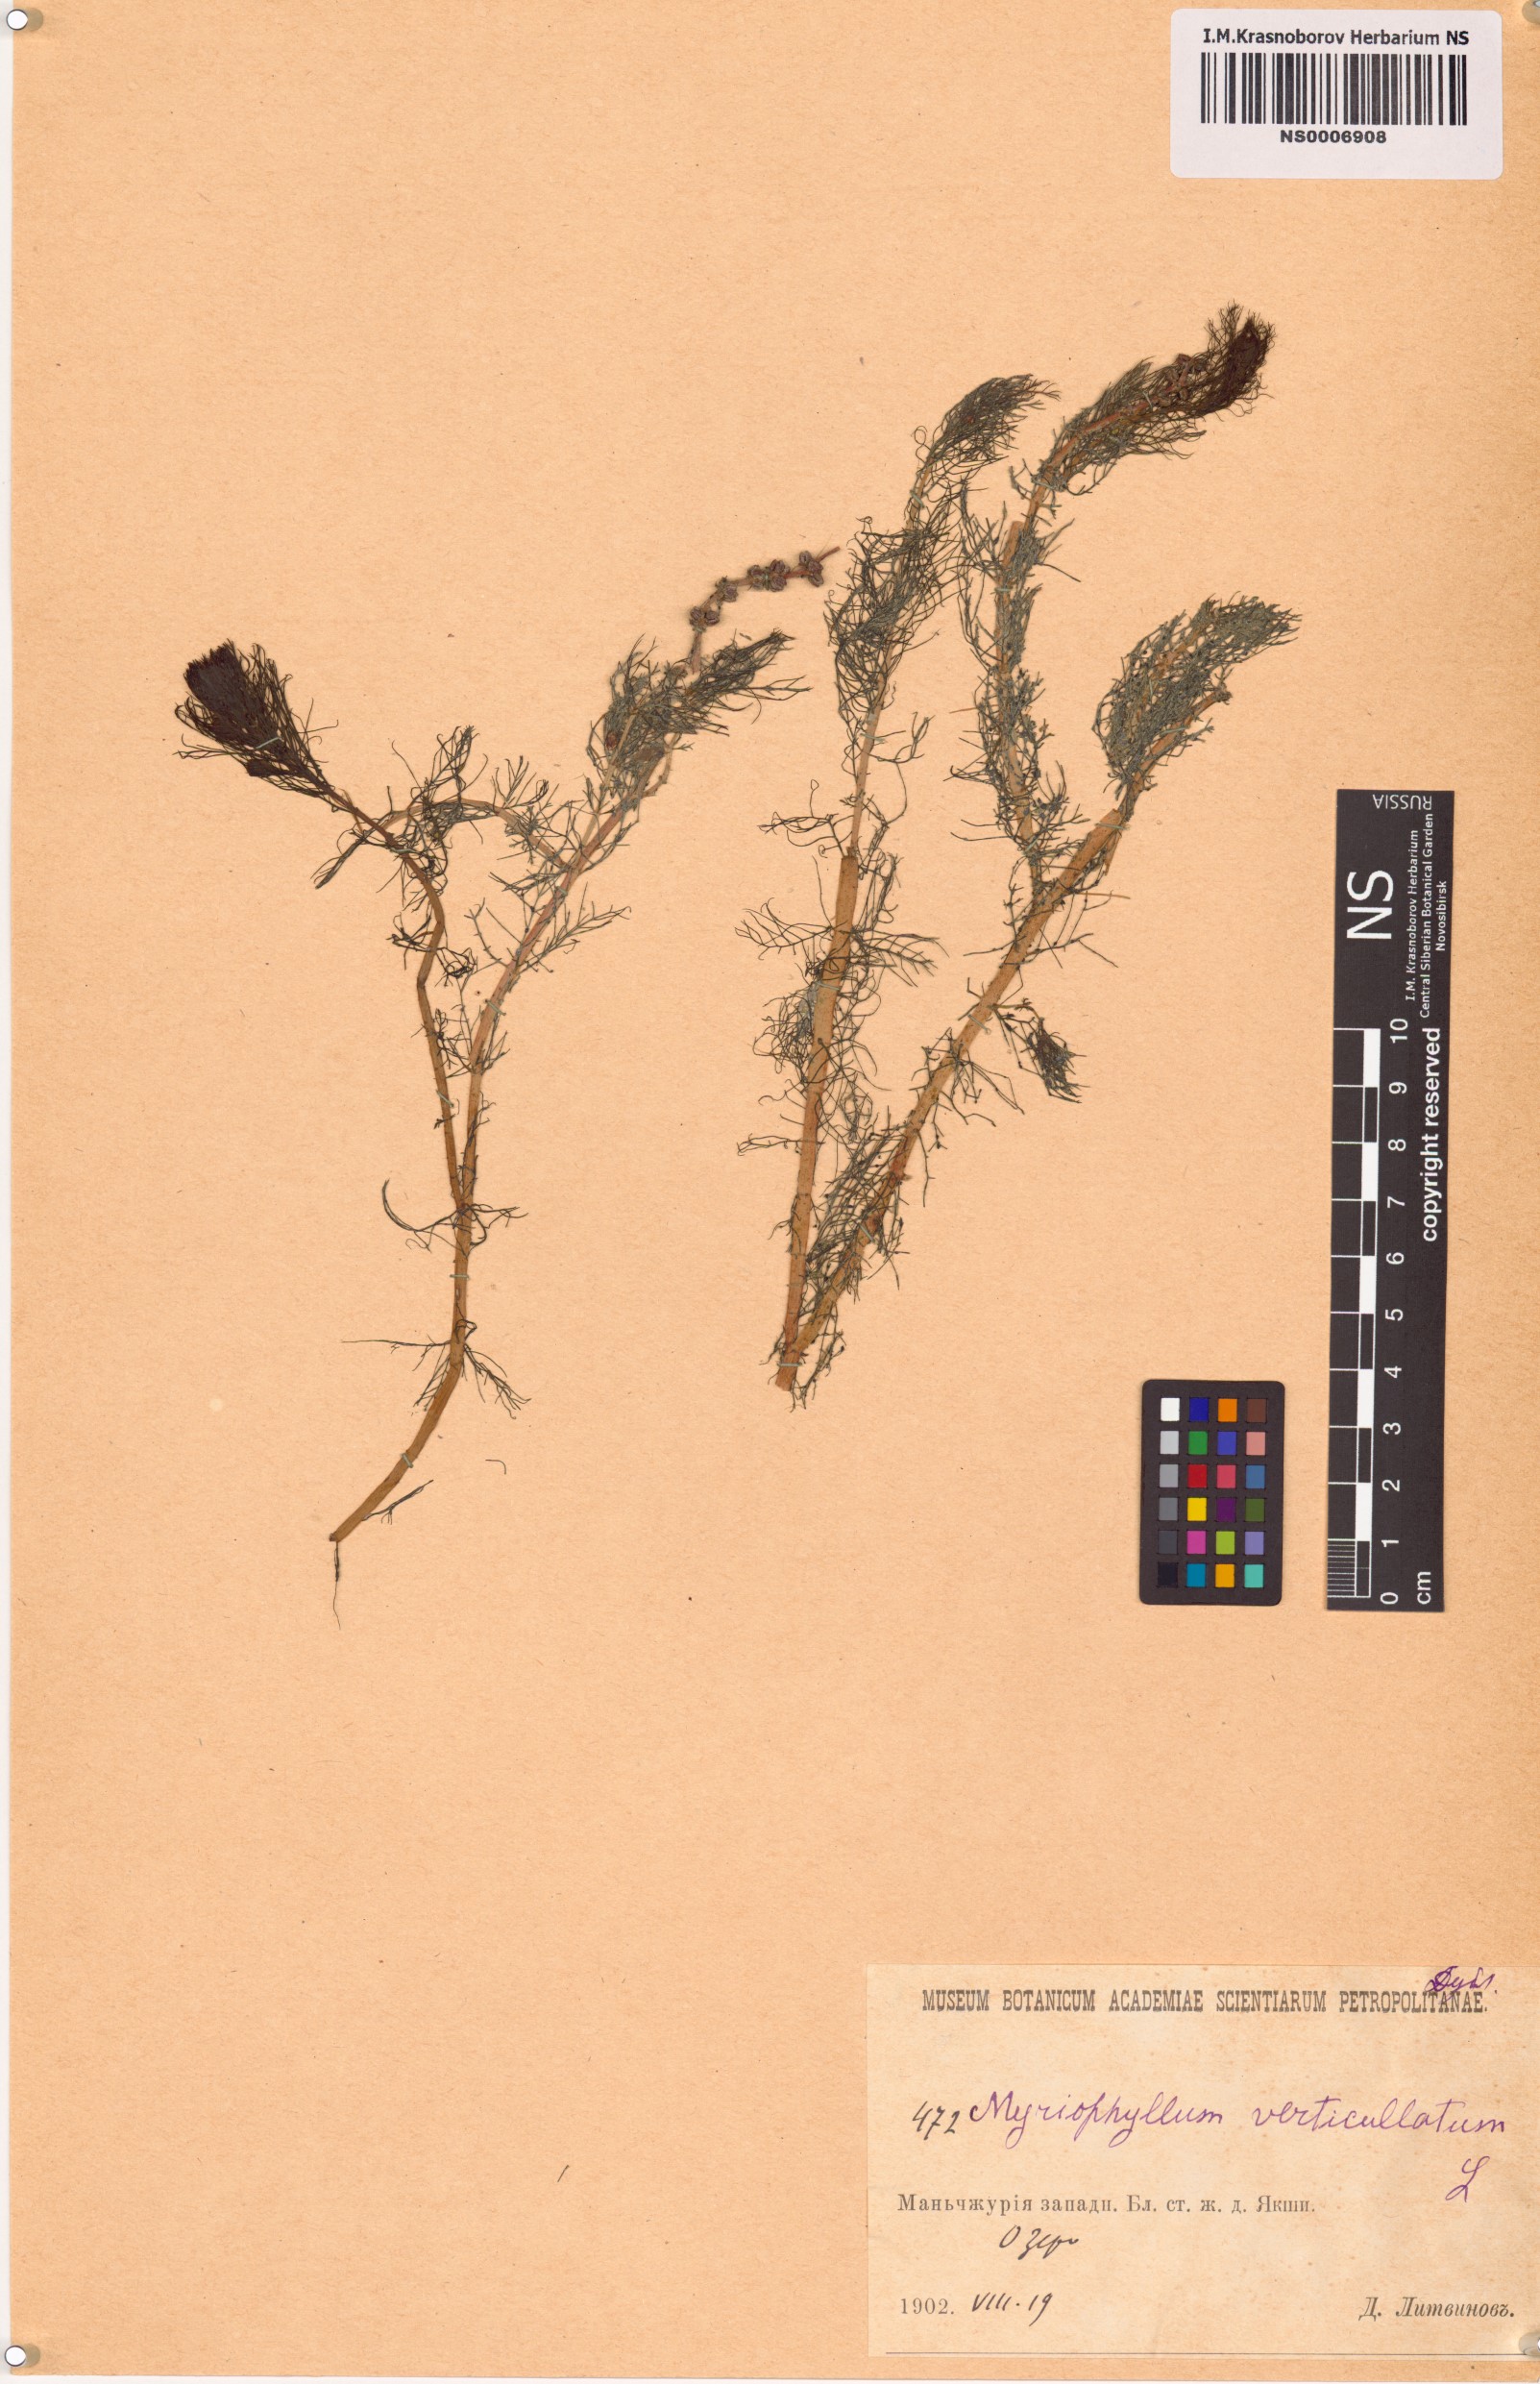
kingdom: Plantae
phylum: Tracheophyta
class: Magnoliopsida
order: Saxifragales
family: Haloragaceae
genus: Myriophyllum
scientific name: Myriophyllum verticillatum
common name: Whorled water-milfoil
